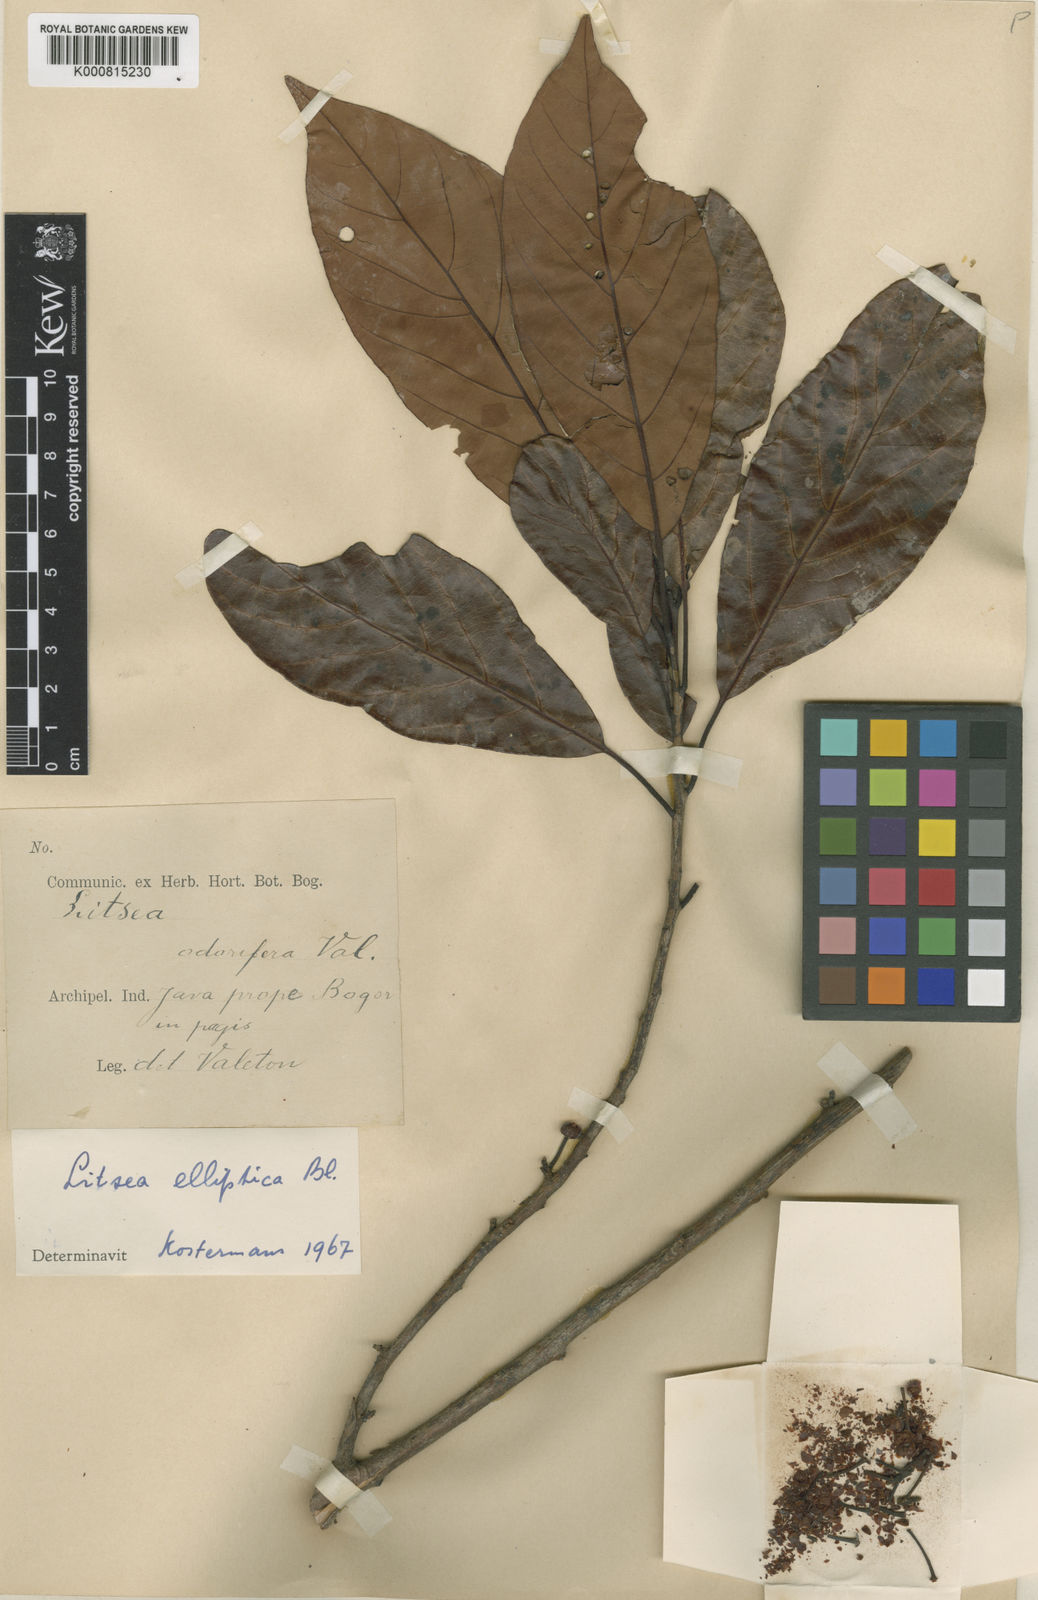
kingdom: Plantae
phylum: Tracheophyta
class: Magnoliopsida
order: Laurales
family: Lauraceae
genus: Litsea
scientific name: Litsea elliptica
